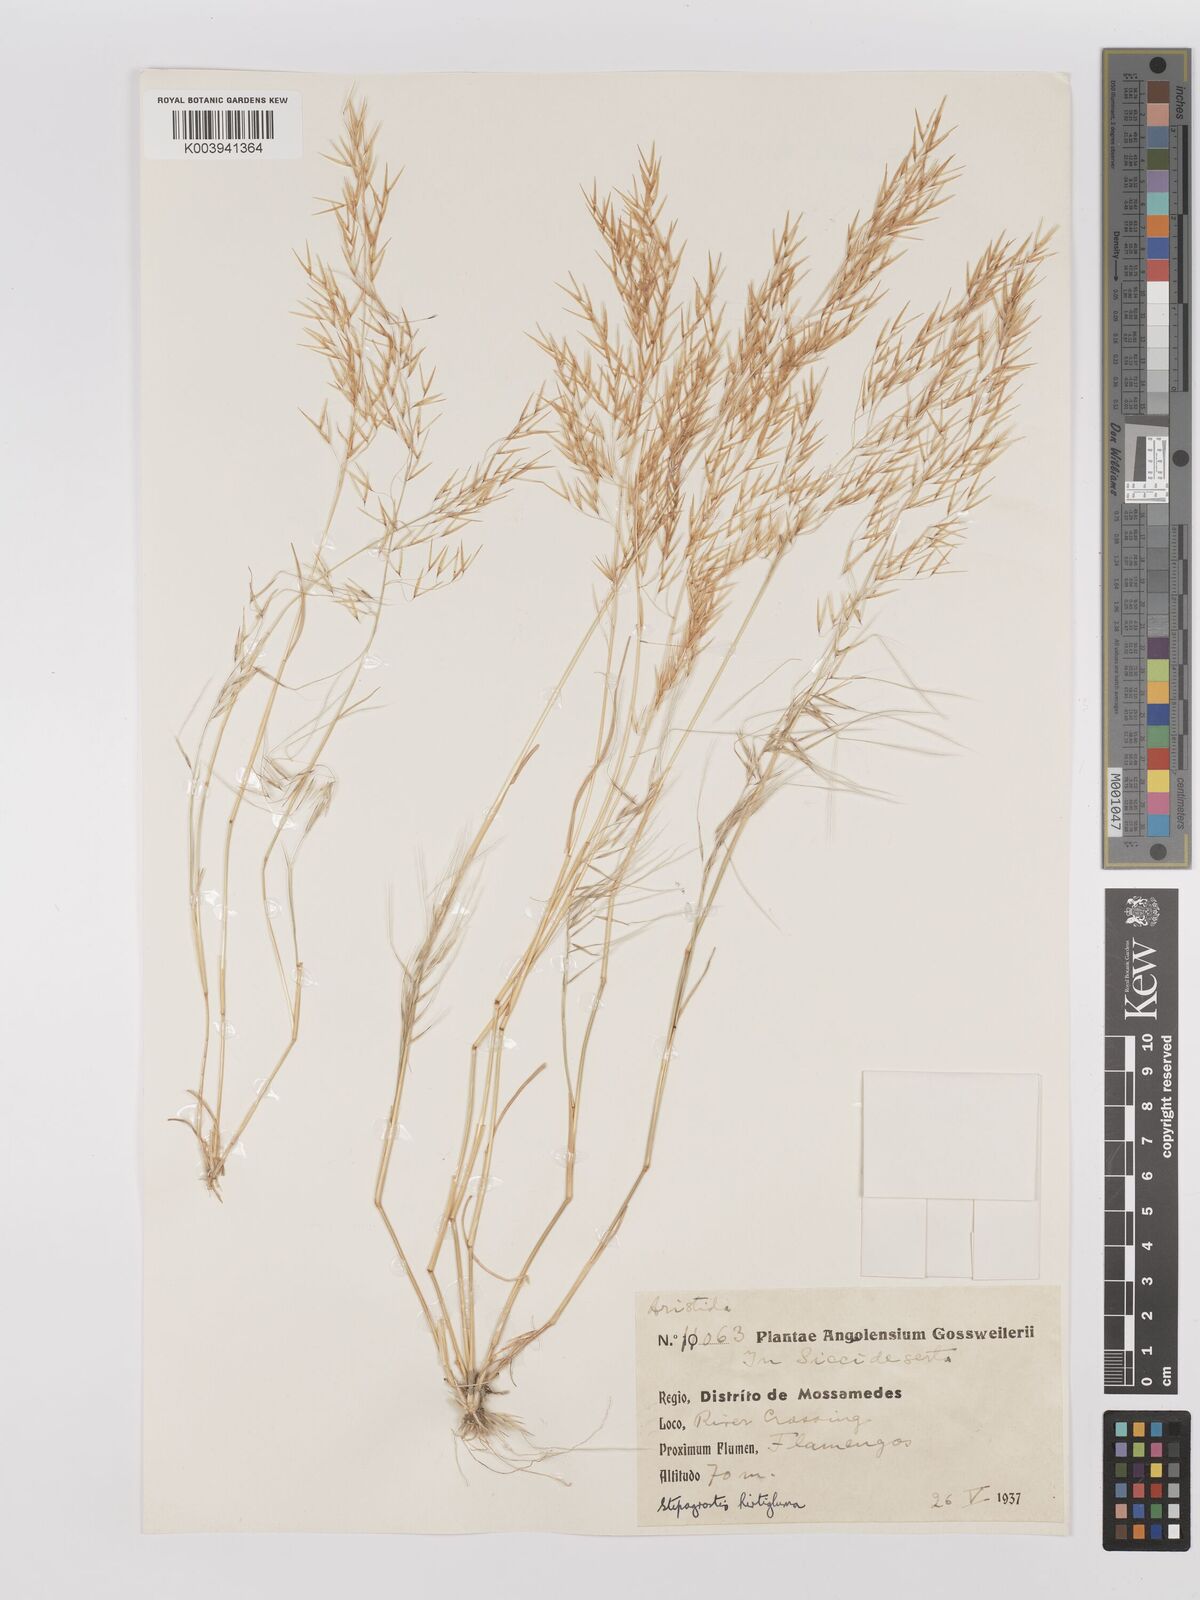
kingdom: Plantae
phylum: Tracheophyta
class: Liliopsida
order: Poales
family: Poaceae
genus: Stipagrostis
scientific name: Stipagrostis hirtigluma
